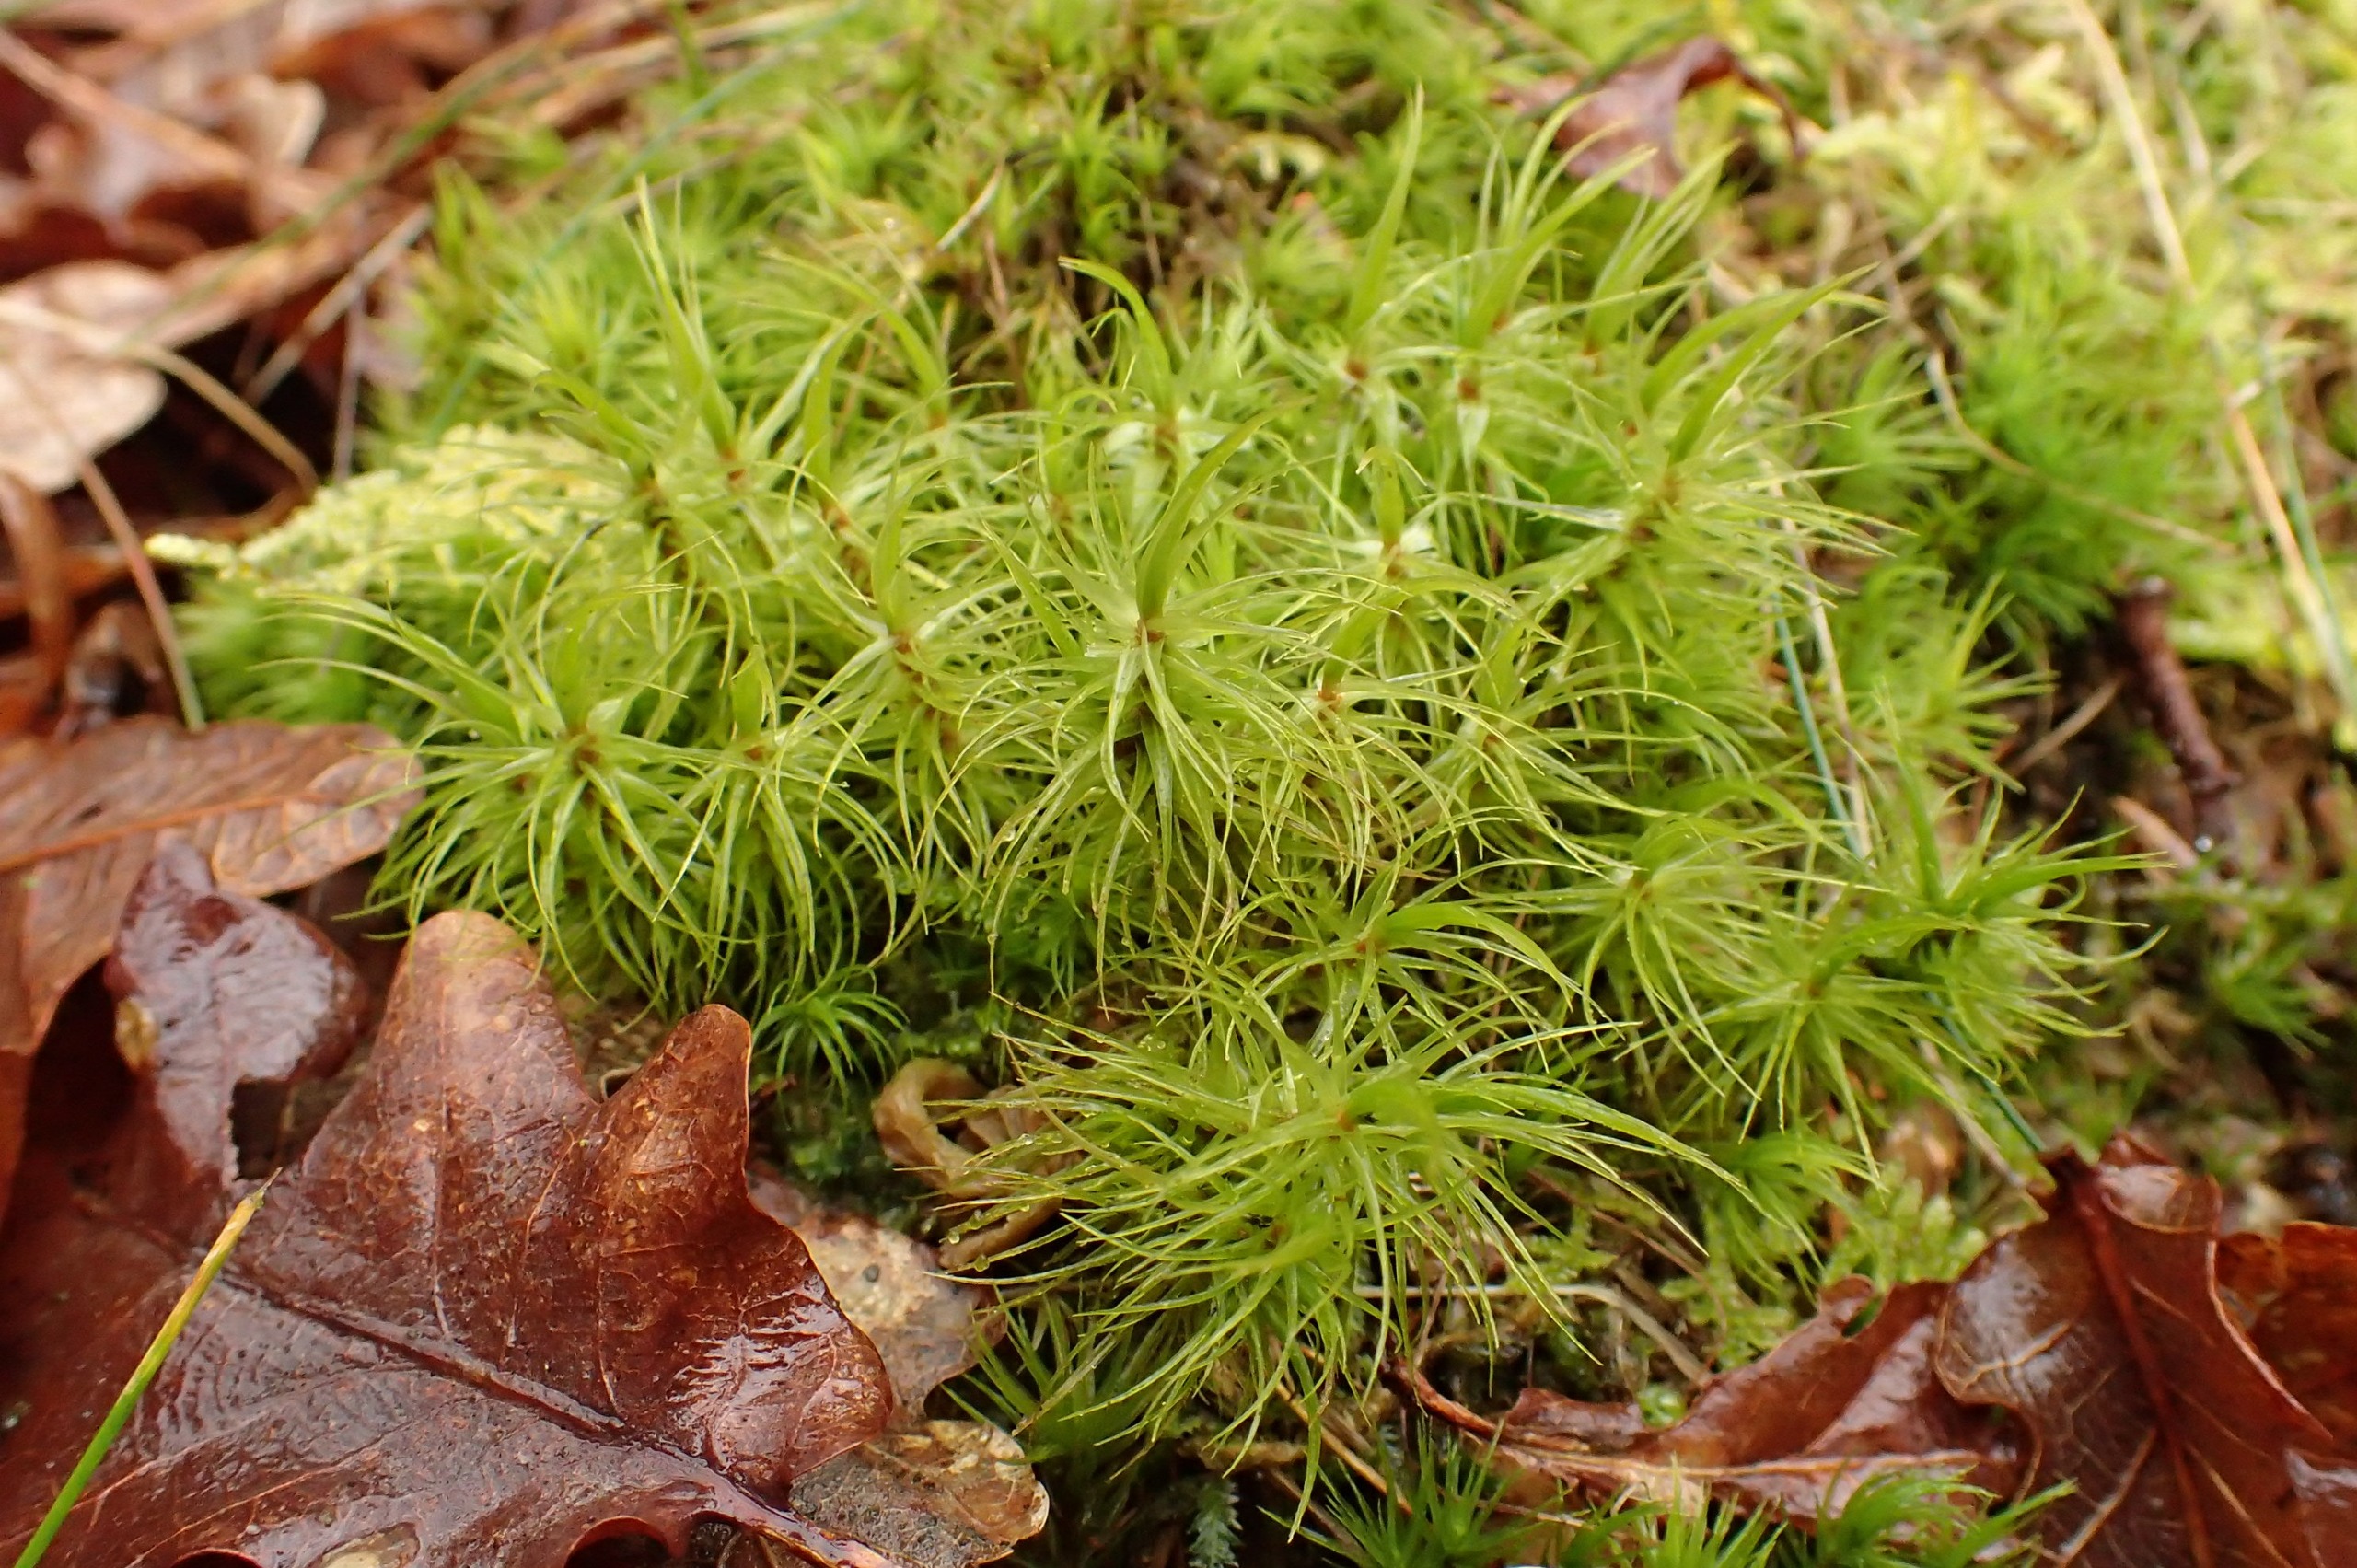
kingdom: Plantae
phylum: Bryophyta
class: Bryopsida
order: Dicranales
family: Dicranaceae
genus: Dicranum
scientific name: Dicranum majus
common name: Stor kløvtand
